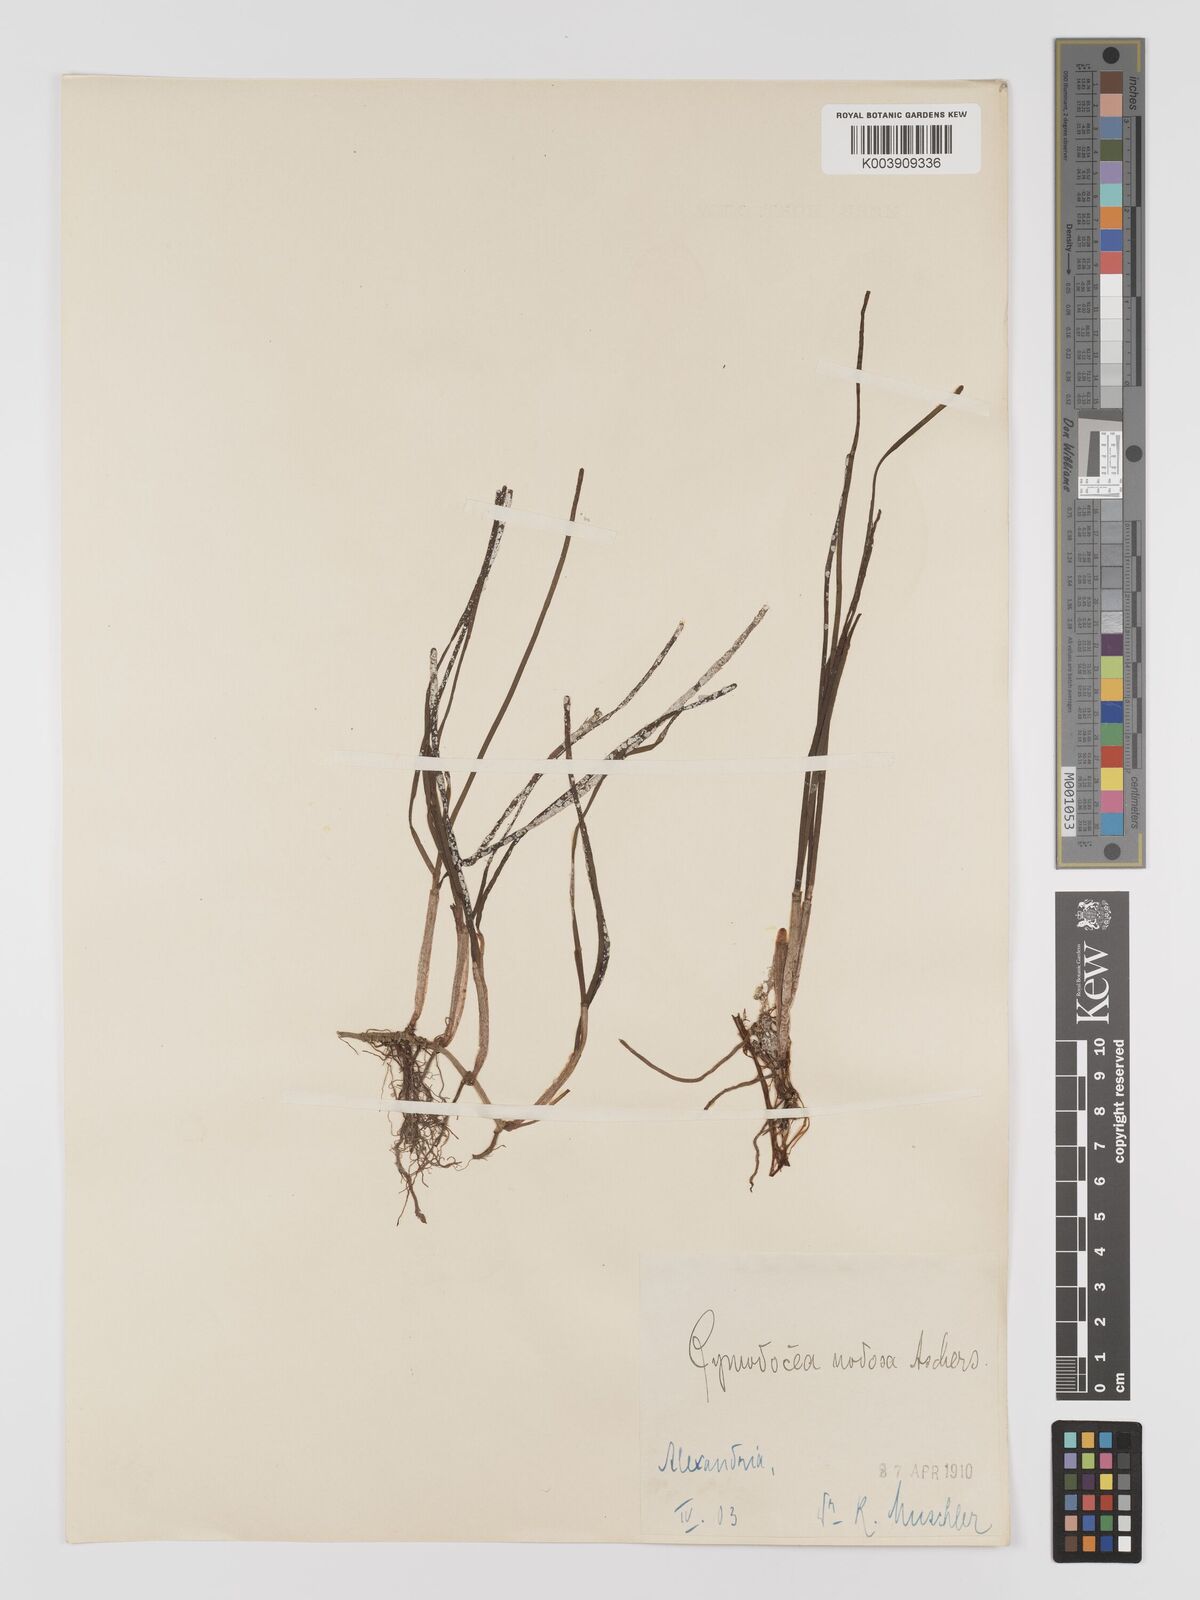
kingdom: Plantae
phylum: Tracheophyta
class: Liliopsida
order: Alismatales
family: Cymodoceaceae
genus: Cymodocea
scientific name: Cymodocea nodosa
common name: Slender seagrass
